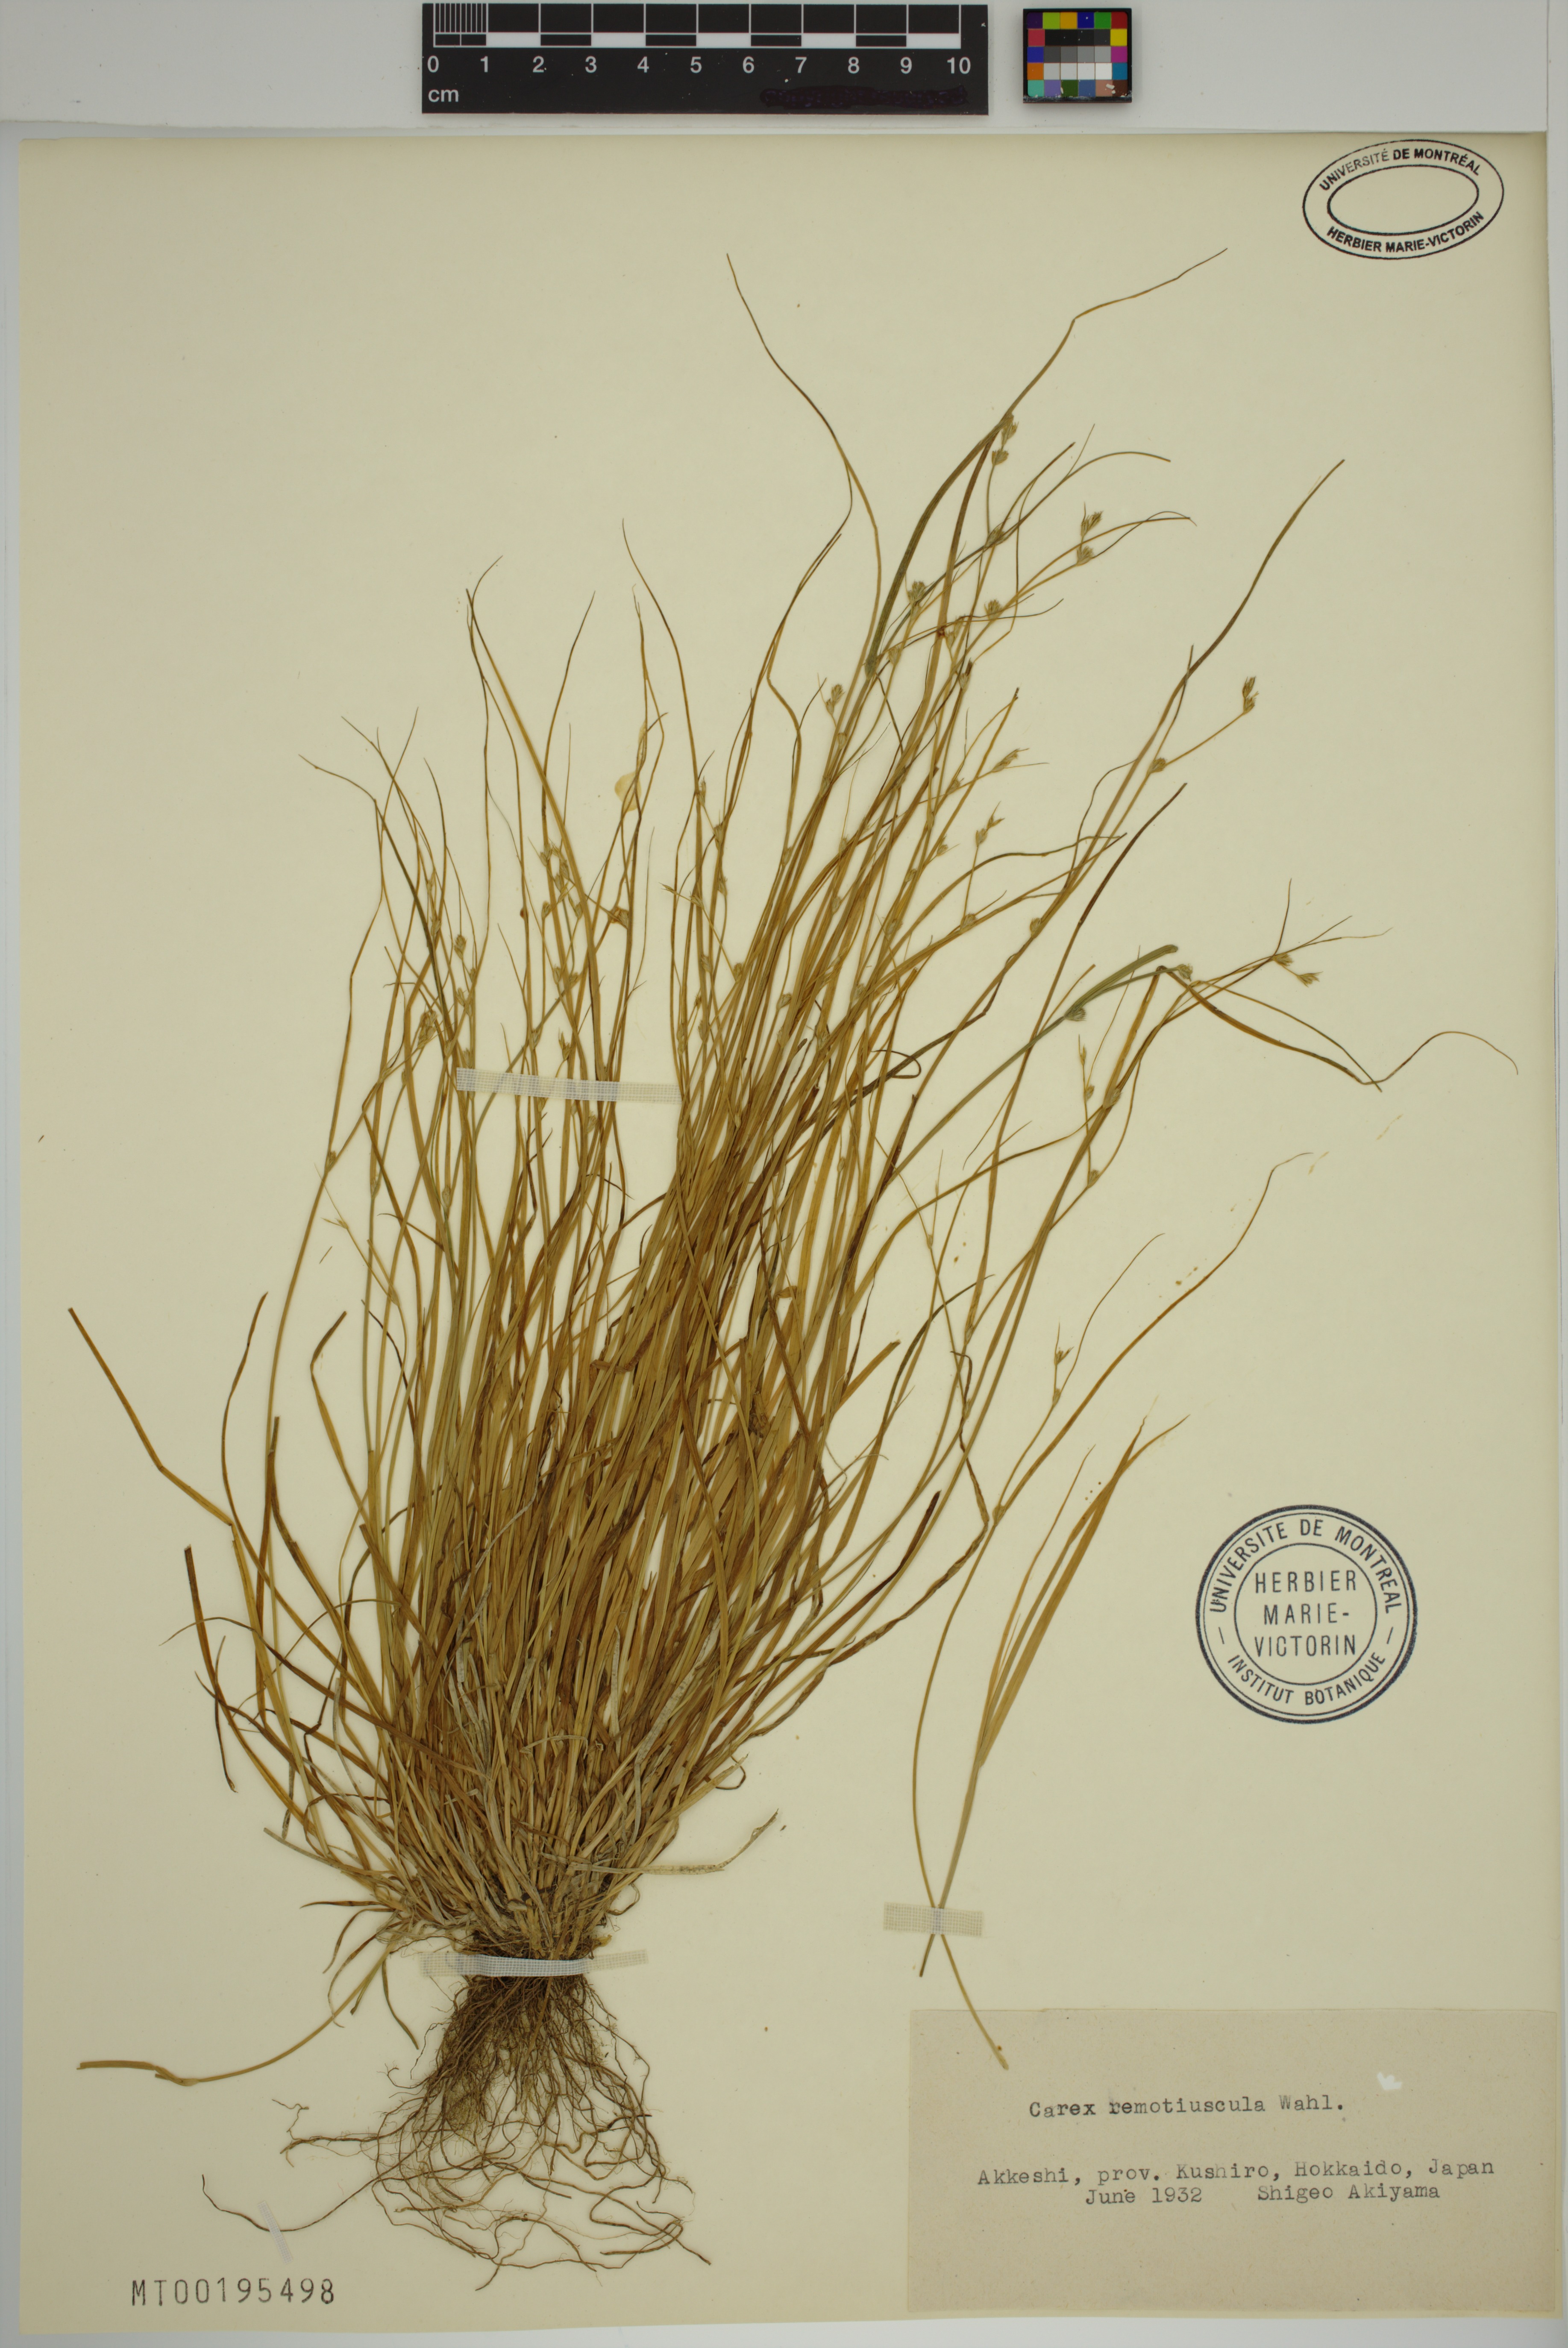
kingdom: Plantae
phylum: Tracheophyta
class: Liliopsida
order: Poales
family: Cyperaceae
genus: Carex
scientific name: Carex remotiuscula
